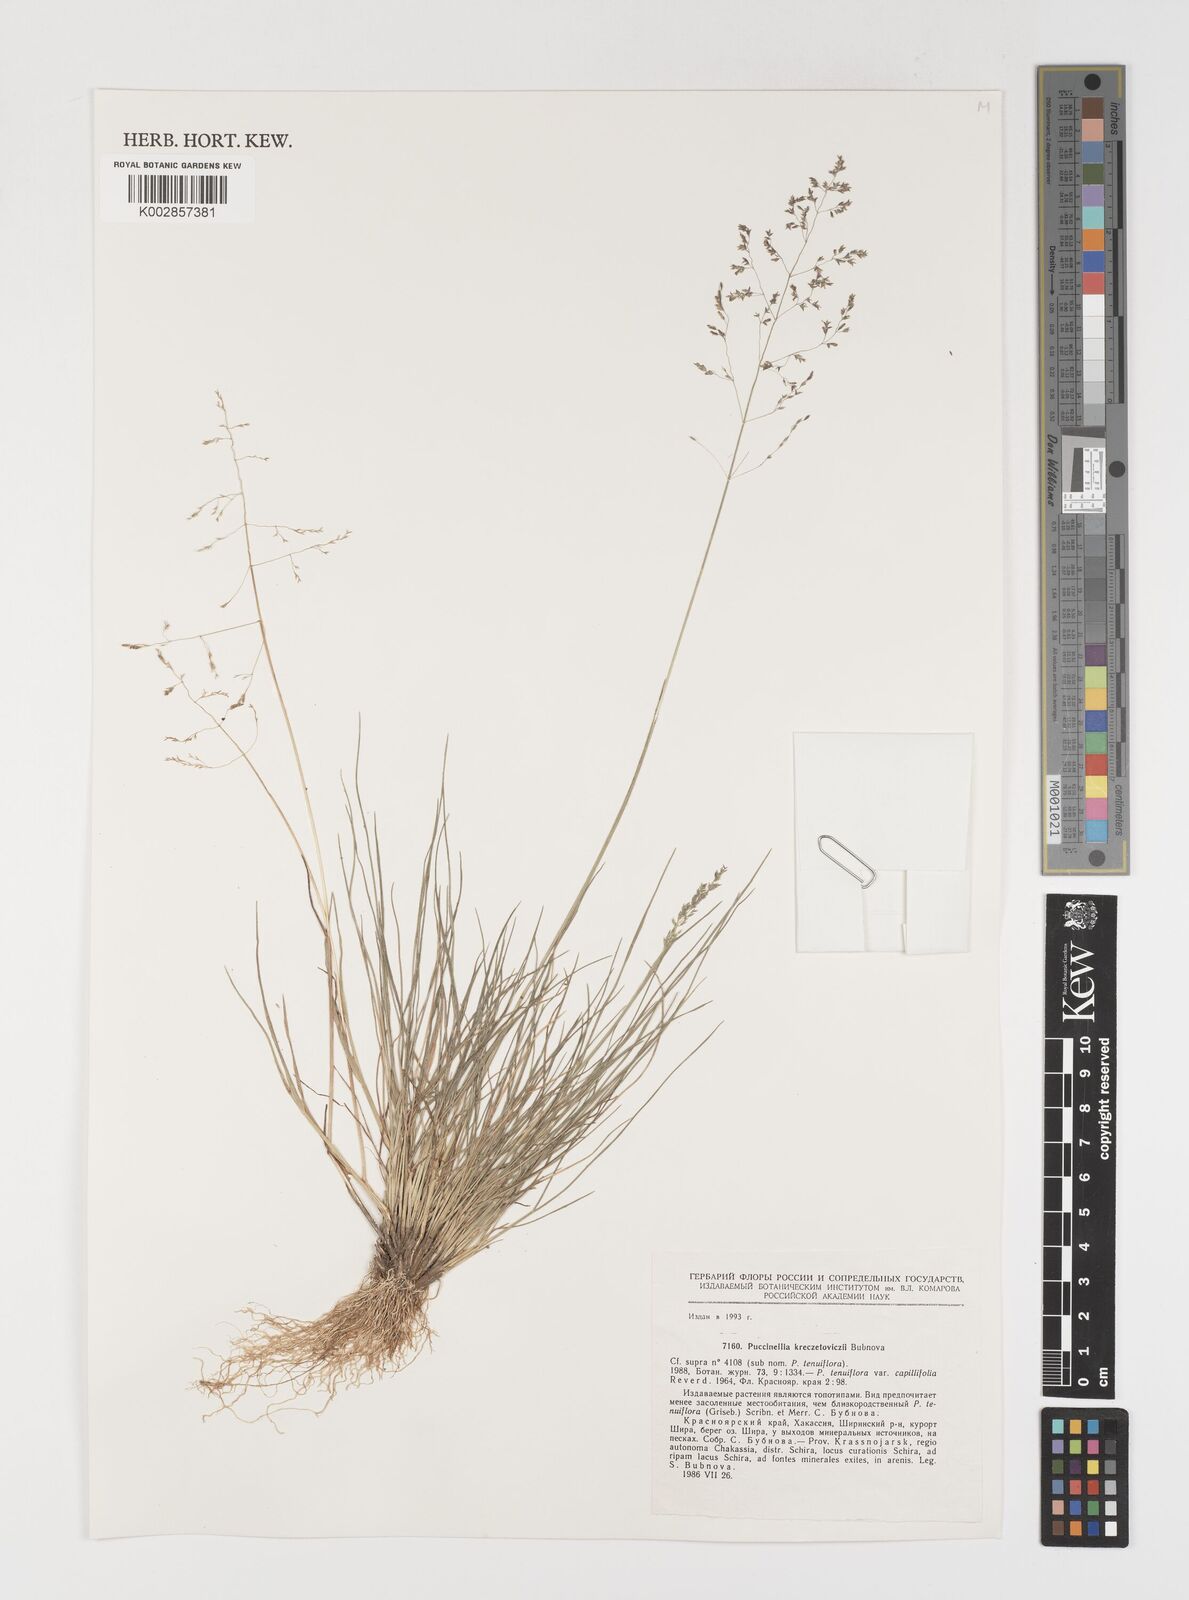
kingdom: Plantae
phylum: Tracheophyta
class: Liliopsida
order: Poales
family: Poaceae
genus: Puccinellia
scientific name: Puccinellia tenuiflora
